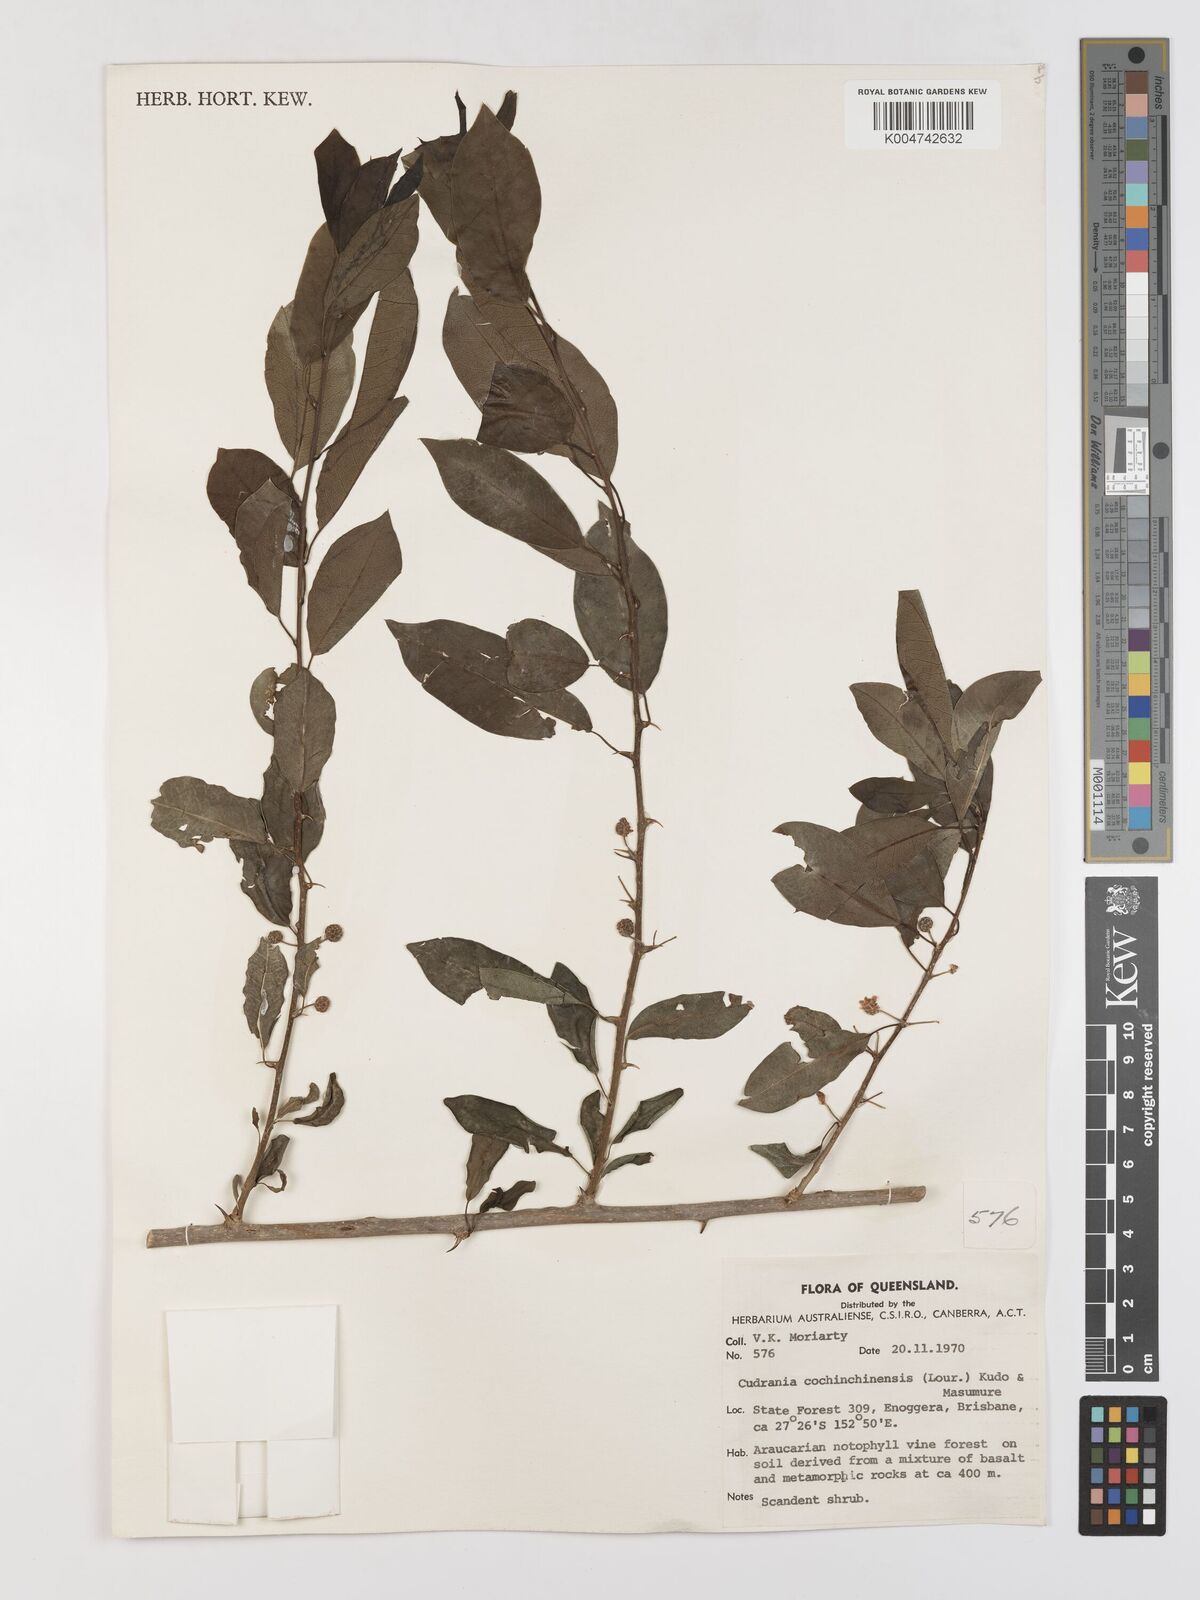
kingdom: Plantae
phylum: Tracheophyta
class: Magnoliopsida
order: Rosales
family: Moraceae
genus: Maclura
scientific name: Maclura cochinchinensis
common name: Cockspurthorn
